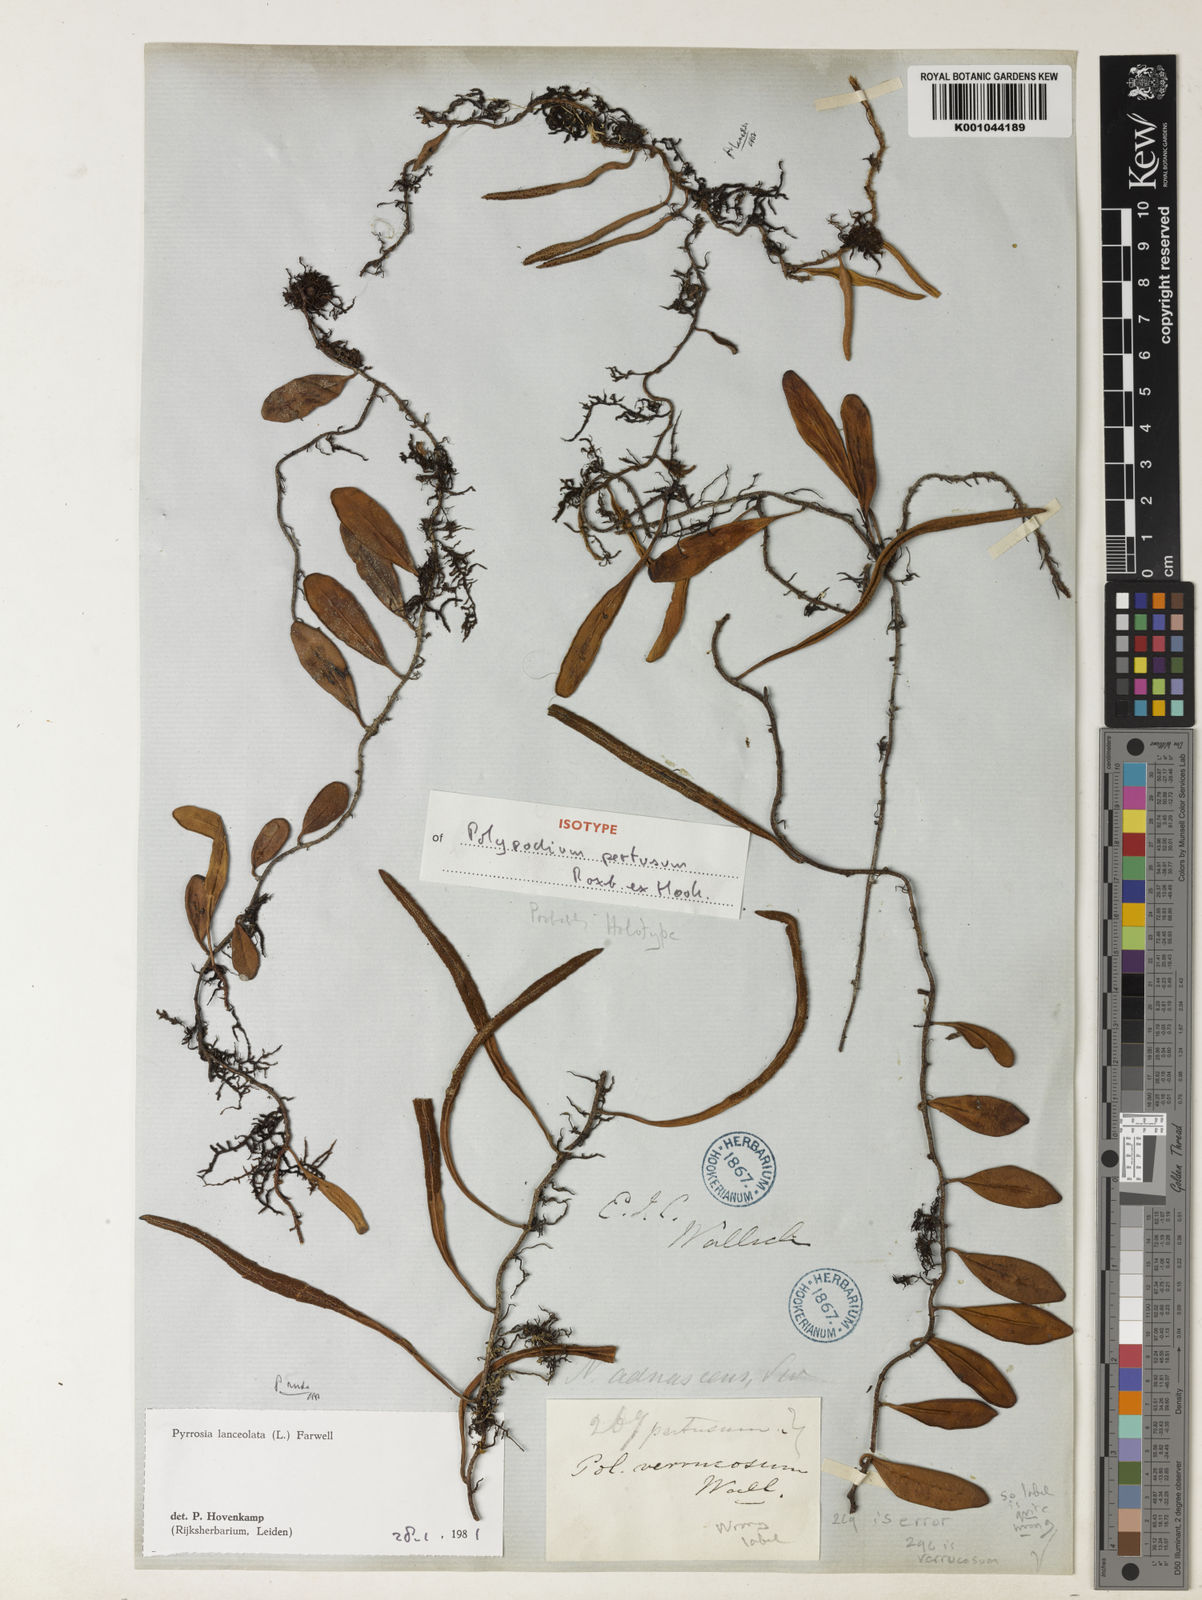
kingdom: Plantae
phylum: Tracheophyta
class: Polypodiopsida
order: Polypodiales
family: Polypodiaceae
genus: Pyrrosia
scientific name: Pyrrosia laevis
